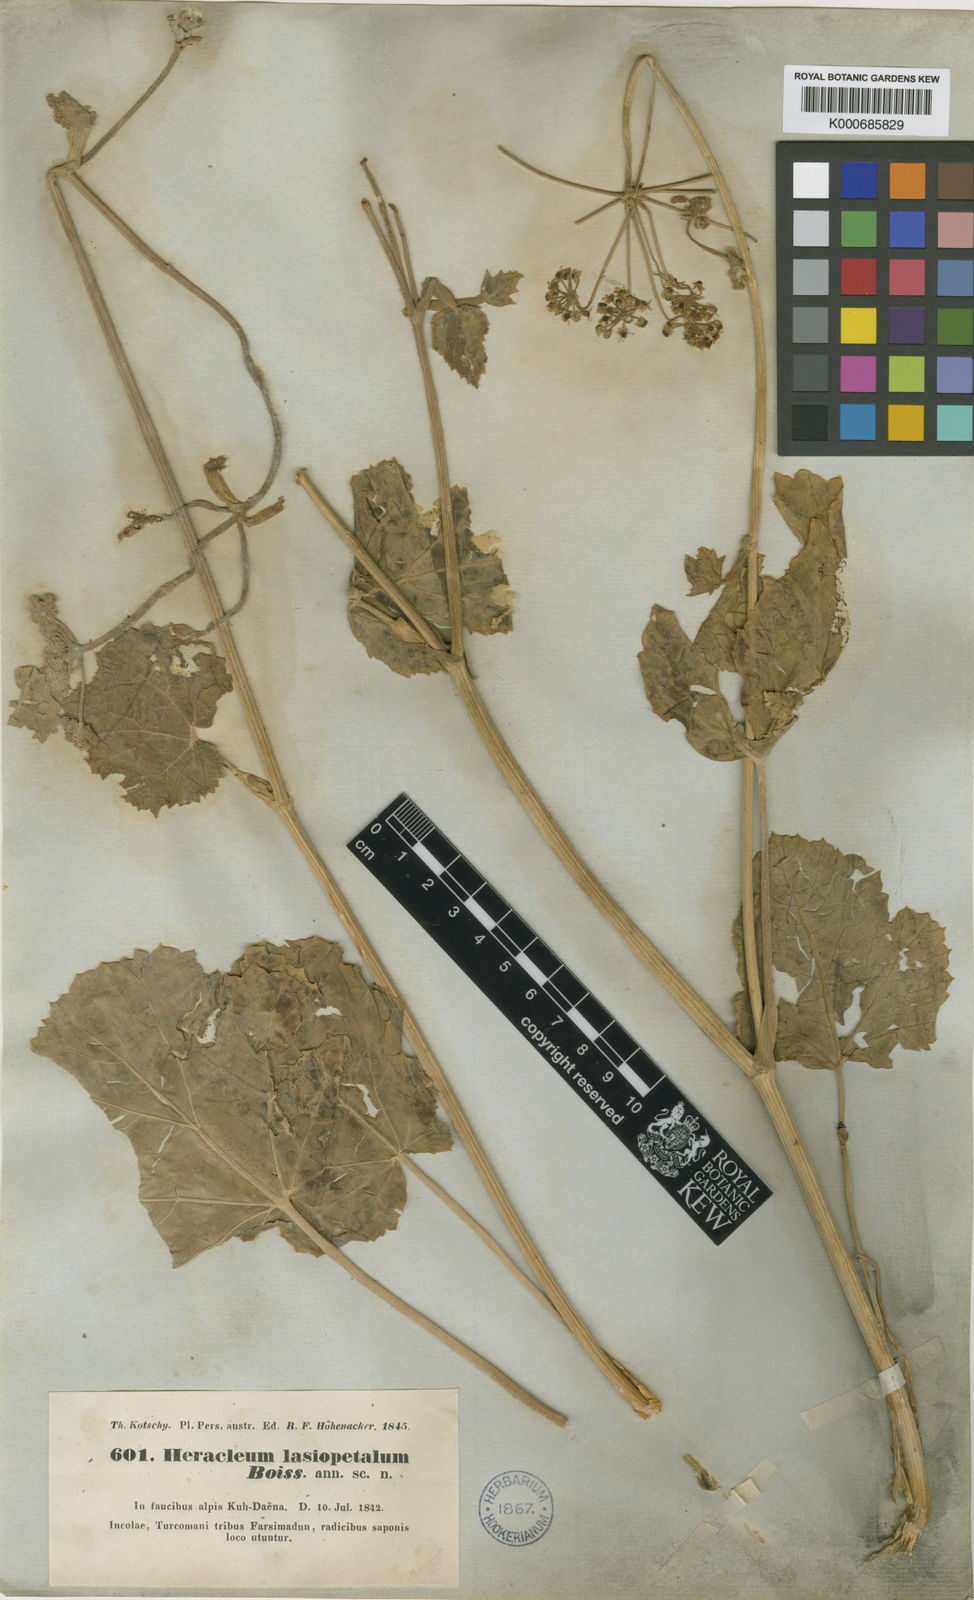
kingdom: Plantae
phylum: Tracheophyta
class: Magnoliopsida
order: Apiales
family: Apiaceae
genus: Tetrataenium
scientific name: Tetrataenium lasiopetalum
